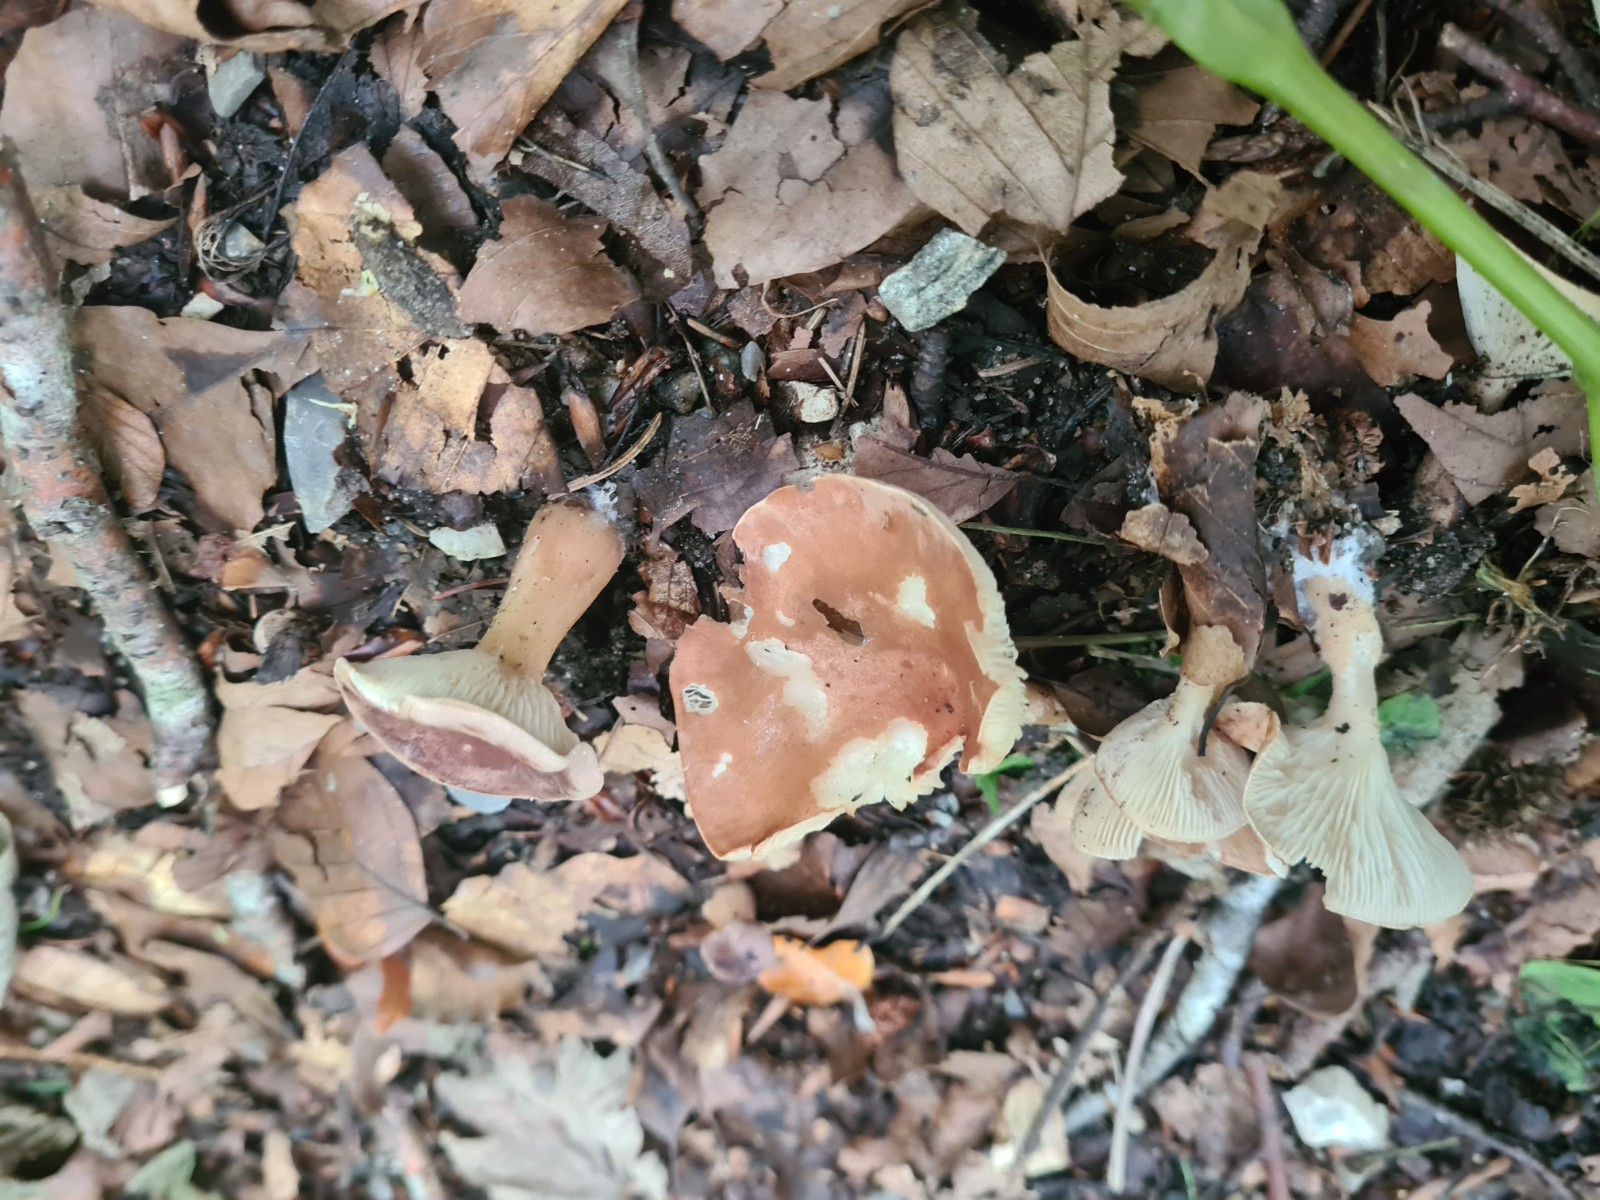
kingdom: Fungi
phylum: Basidiomycota
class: Agaricomycetes
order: Agaricales
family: Tricholomataceae
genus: Infundibulicybe
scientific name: Infundibulicybe
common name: tragthat
